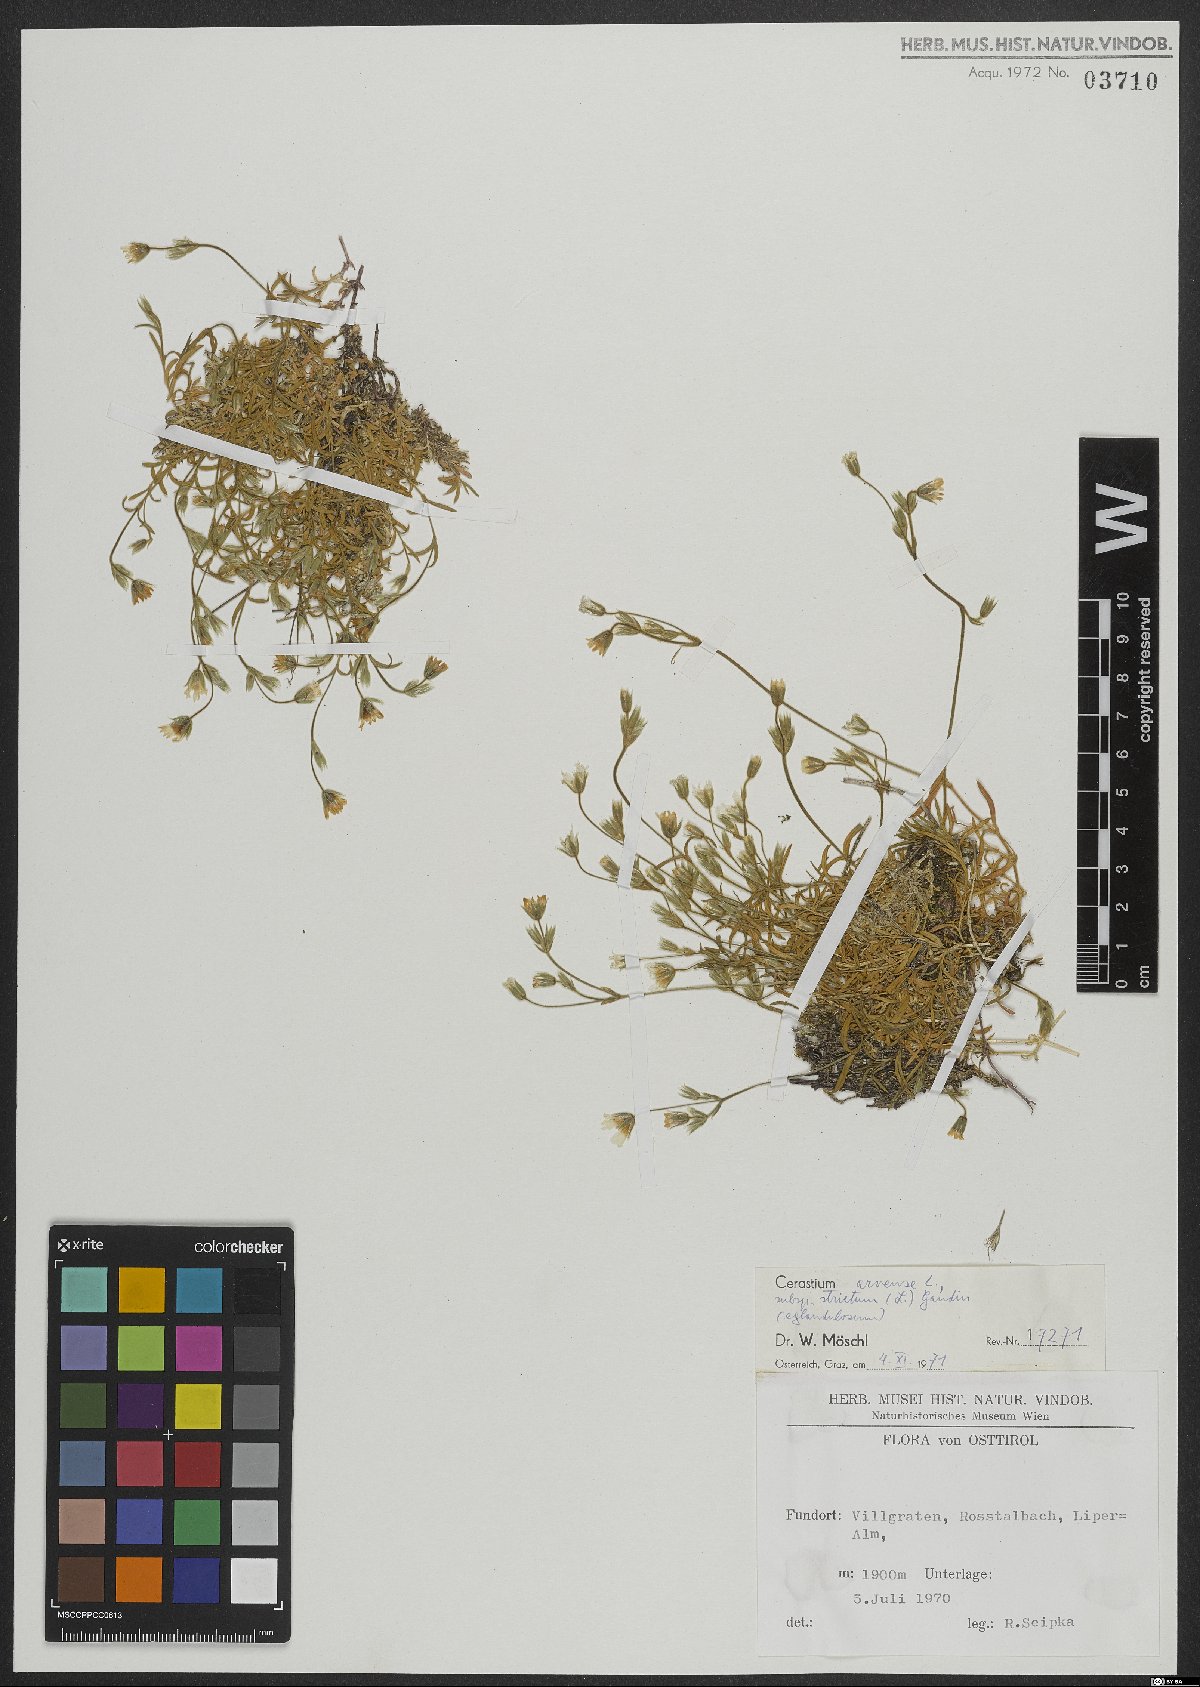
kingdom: Plantae
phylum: Tracheophyta
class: Magnoliopsida
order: Caryophyllales
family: Caryophyllaceae
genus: Cerastium
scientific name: Cerastium elongatum
